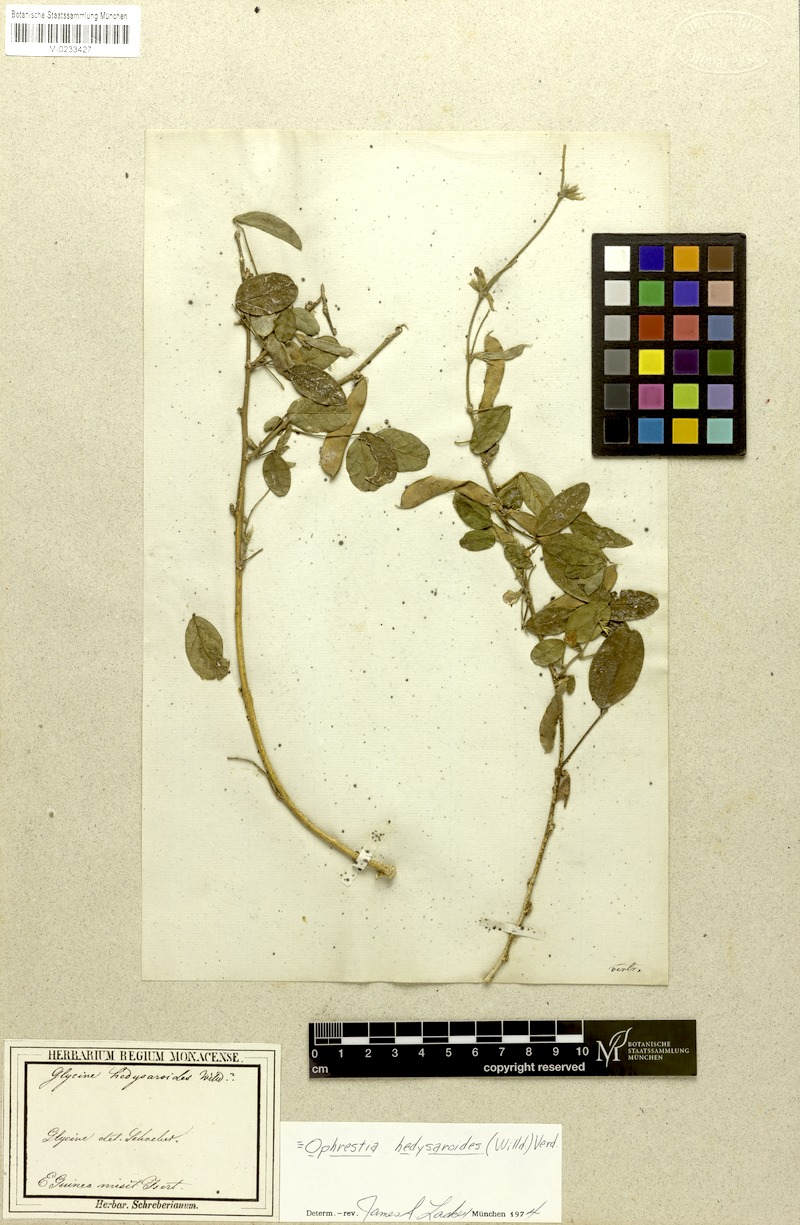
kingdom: Plantae
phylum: Tracheophyta
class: Magnoliopsida
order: Fabales
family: Fabaceae
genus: Ophrestia
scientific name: Ophrestia hedysaroides
